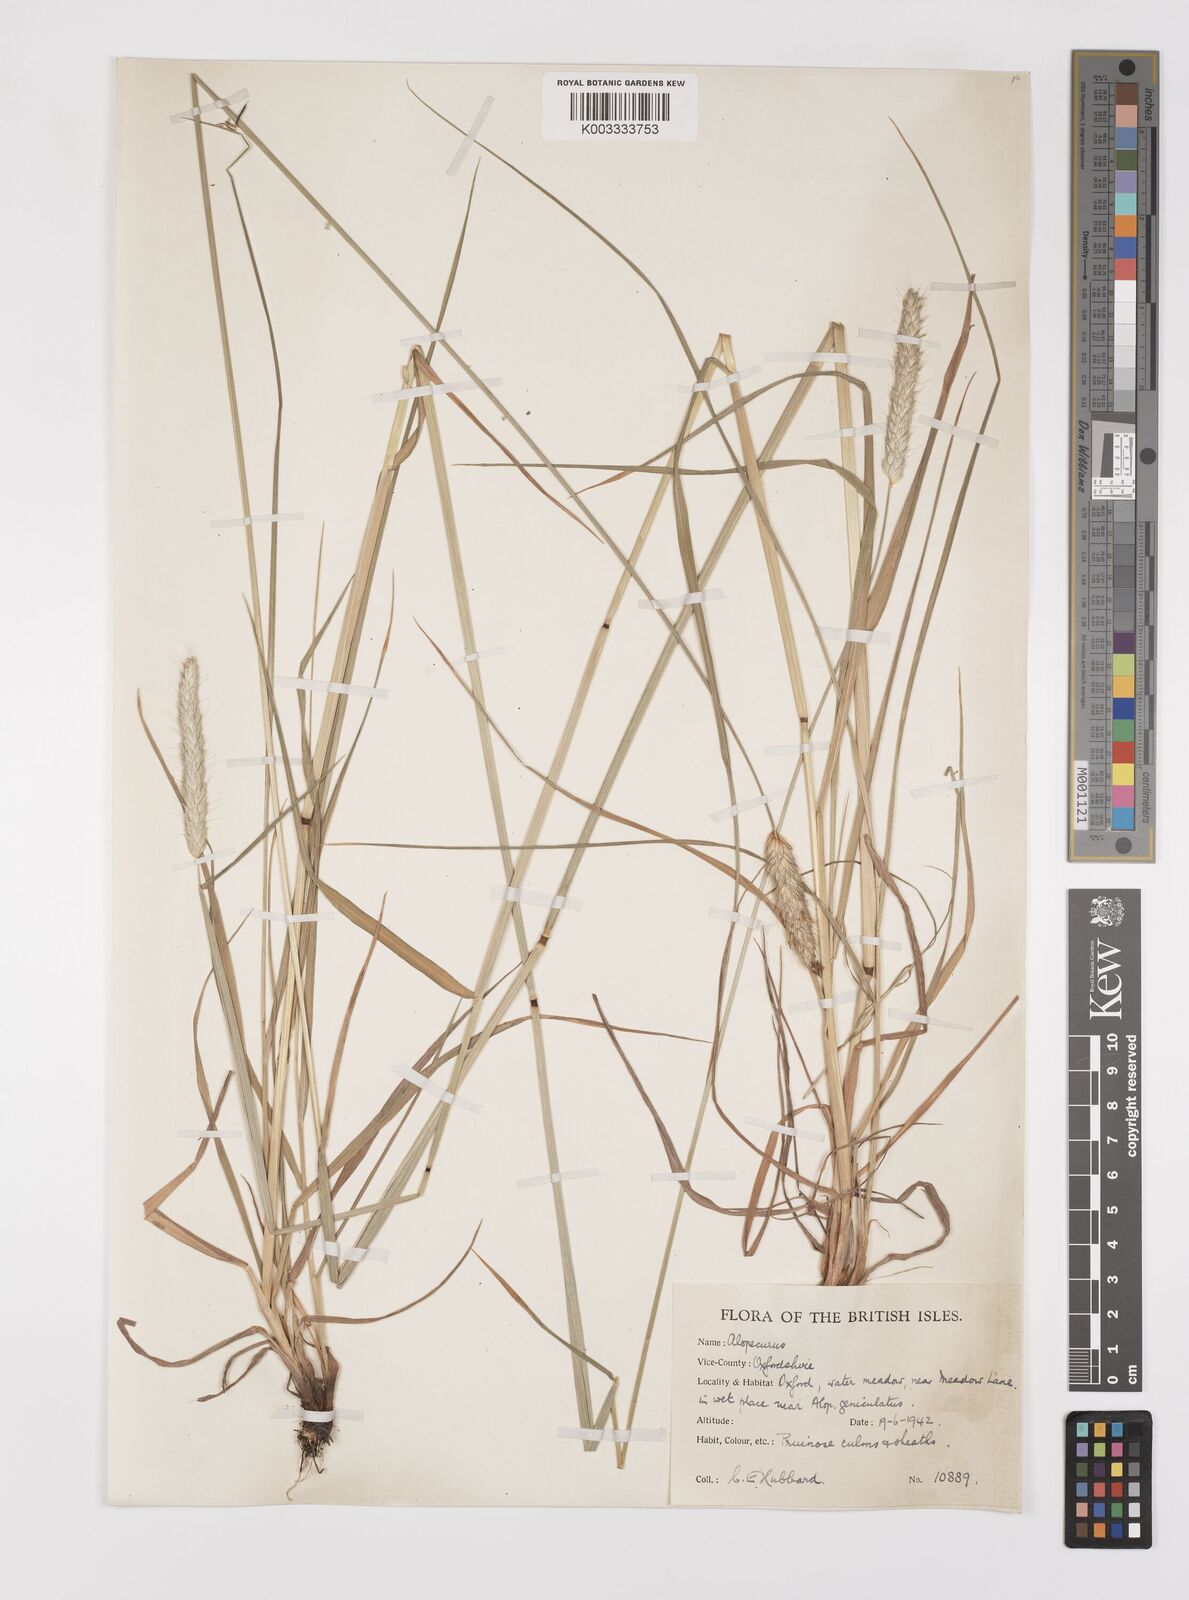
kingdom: Plantae
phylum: Tracheophyta
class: Liliopsida
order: Poales
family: Poaceae
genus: Alopecurus
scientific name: Alopecurus pratensis
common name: Meadow foxtail
